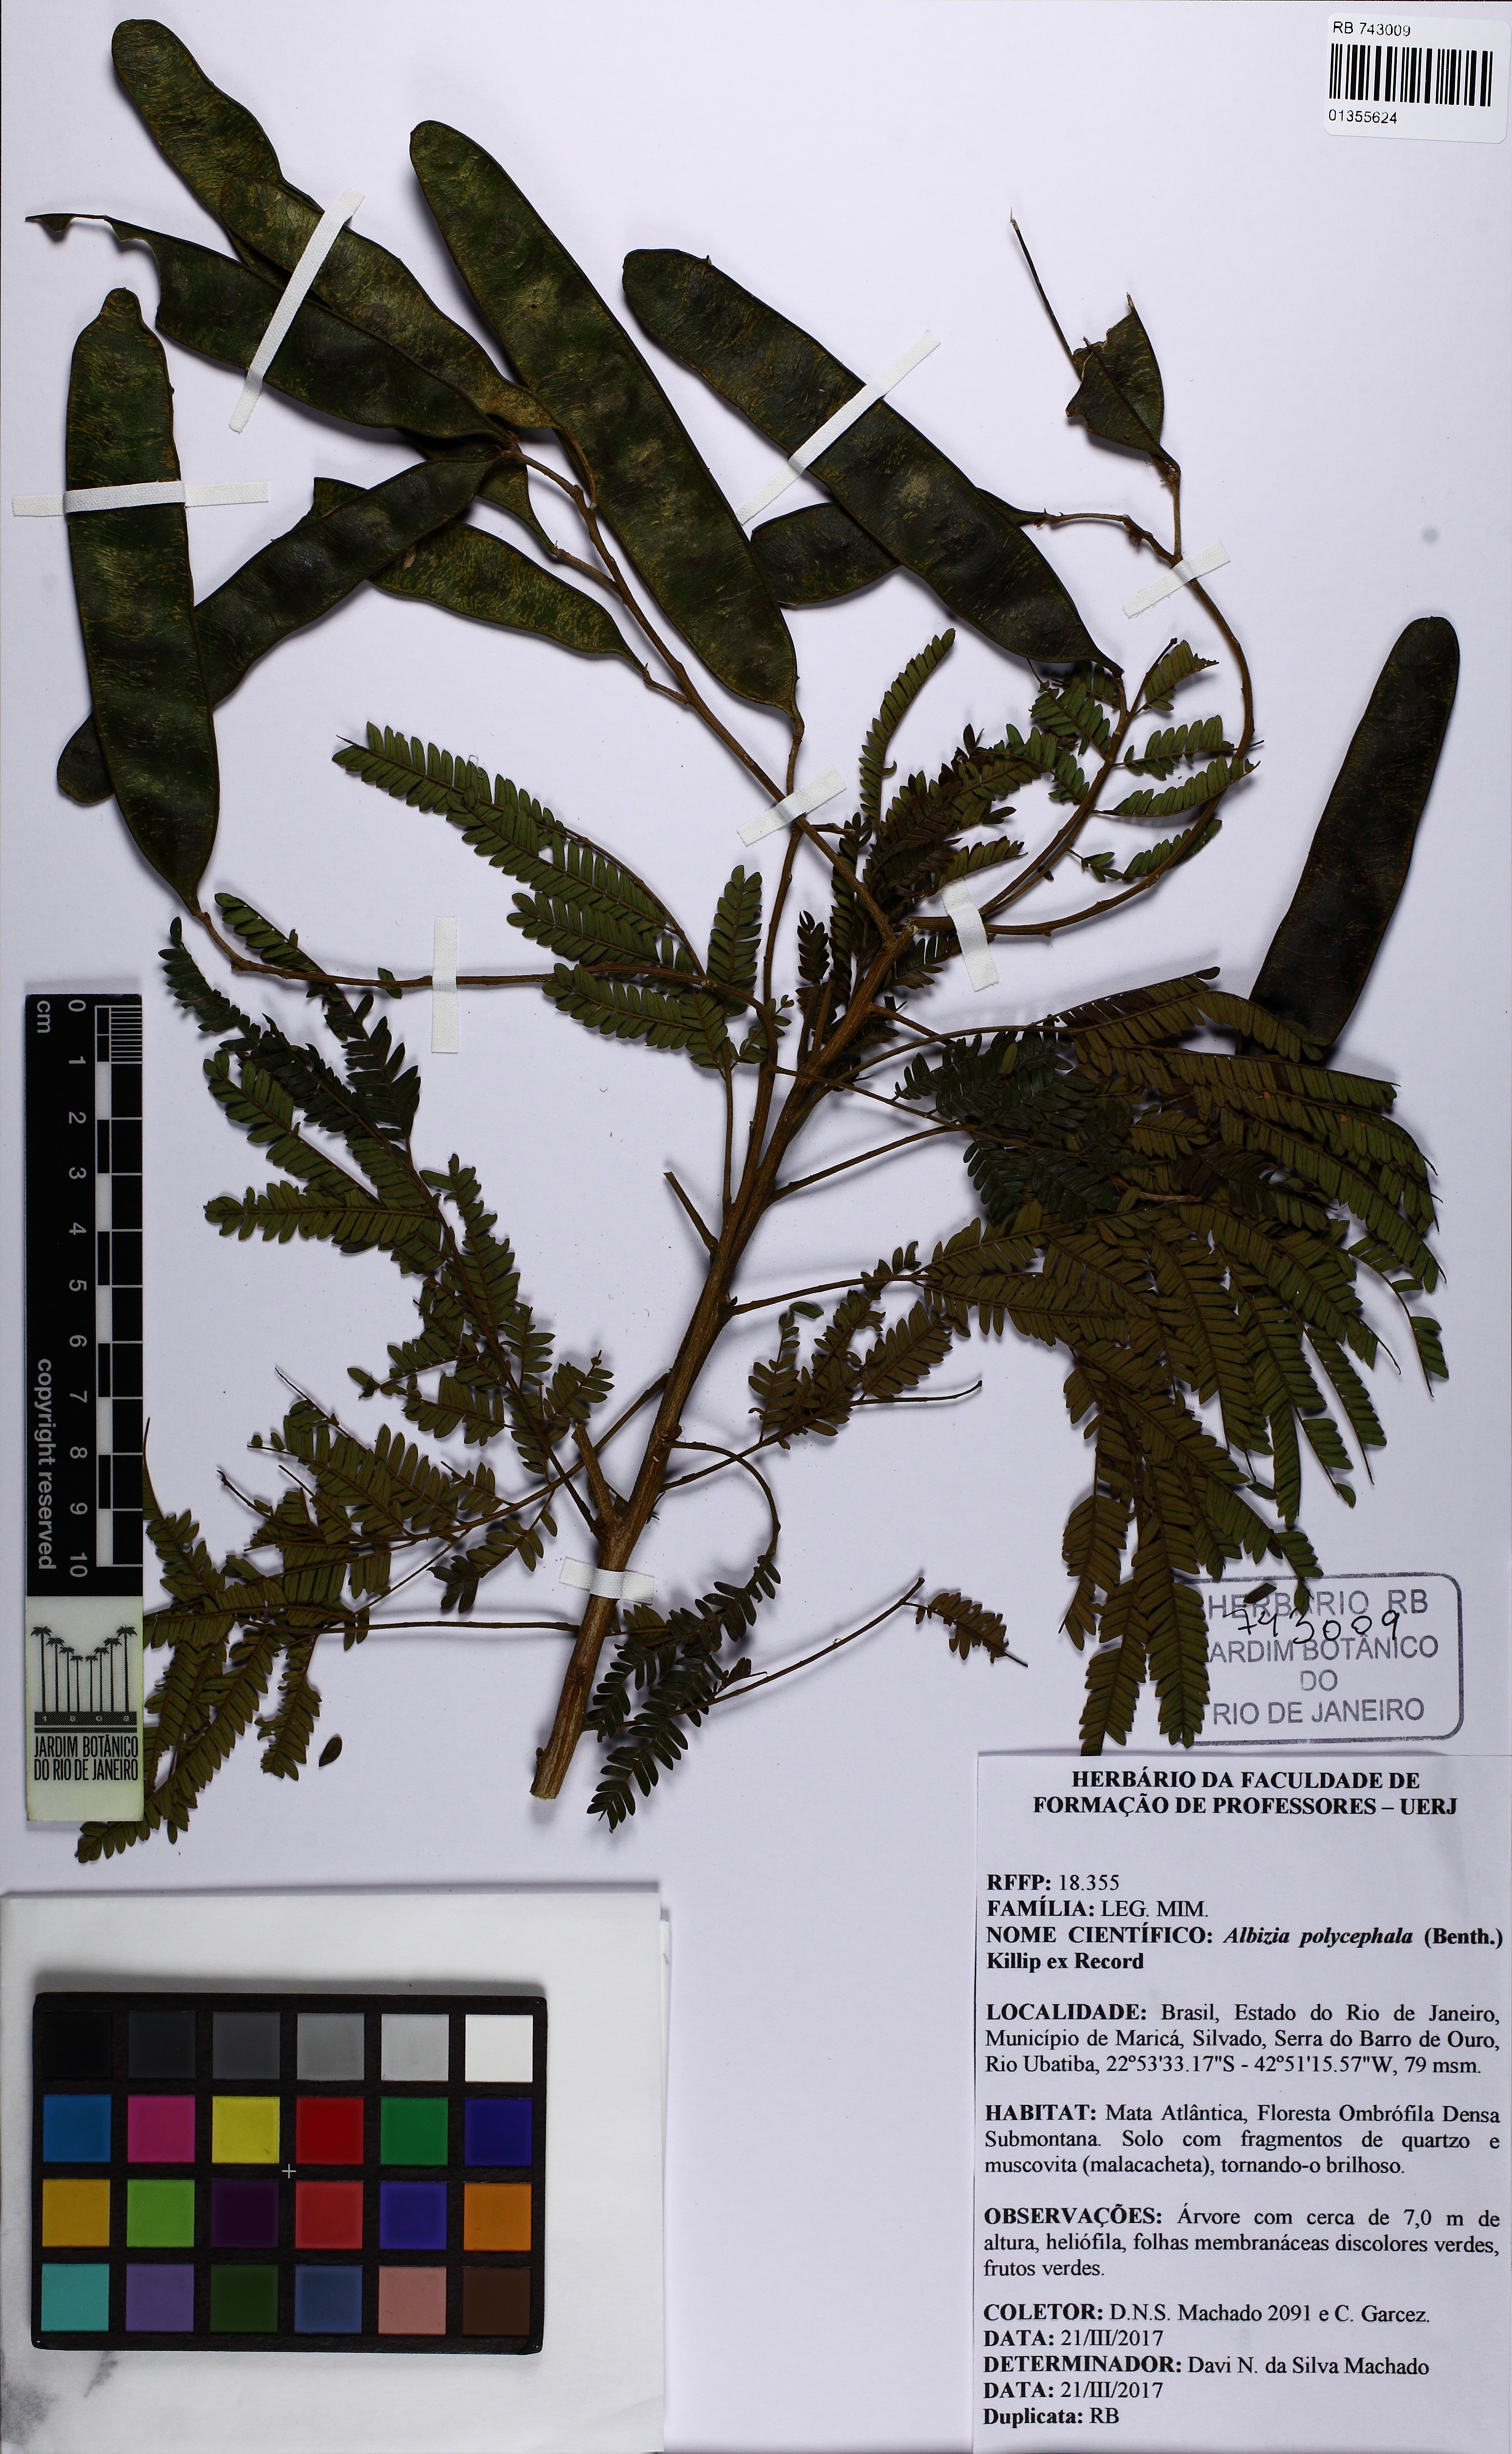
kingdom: Plantae
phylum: Tracheophyta
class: Magnoliopsida
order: Fabales
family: Fabaceae
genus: Albizia
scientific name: Albizia polycephala
